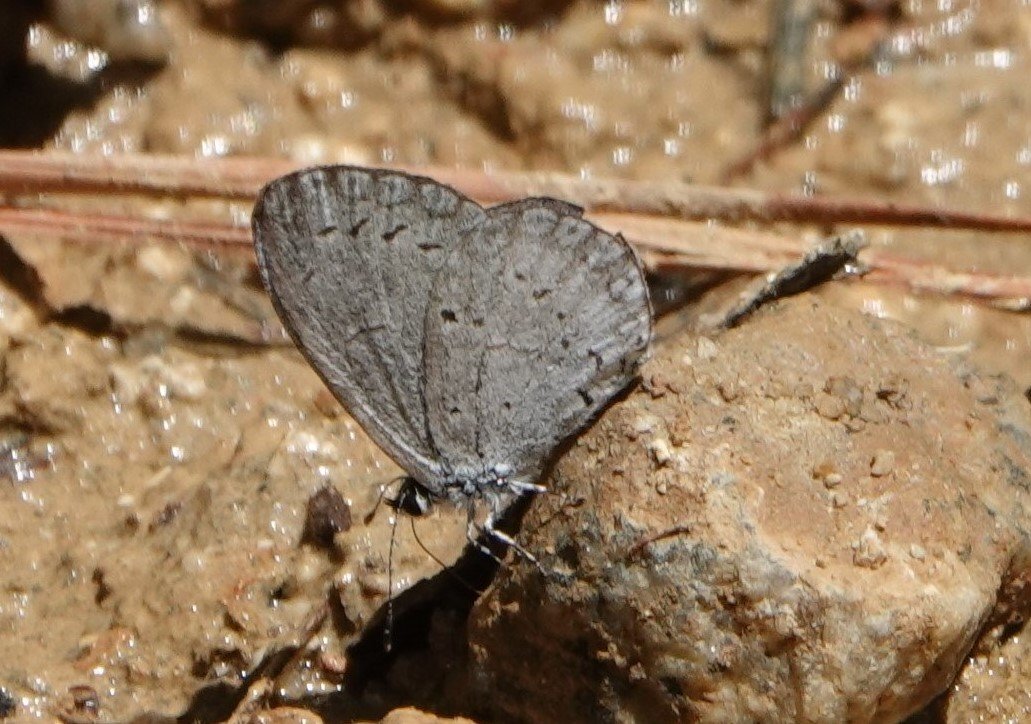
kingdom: Animalia
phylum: Arthropoda
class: Insecta
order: Lepidoptera
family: Lycaenidae
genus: Cyaniris
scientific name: Cyaniris neglecta
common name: Summer Azure
